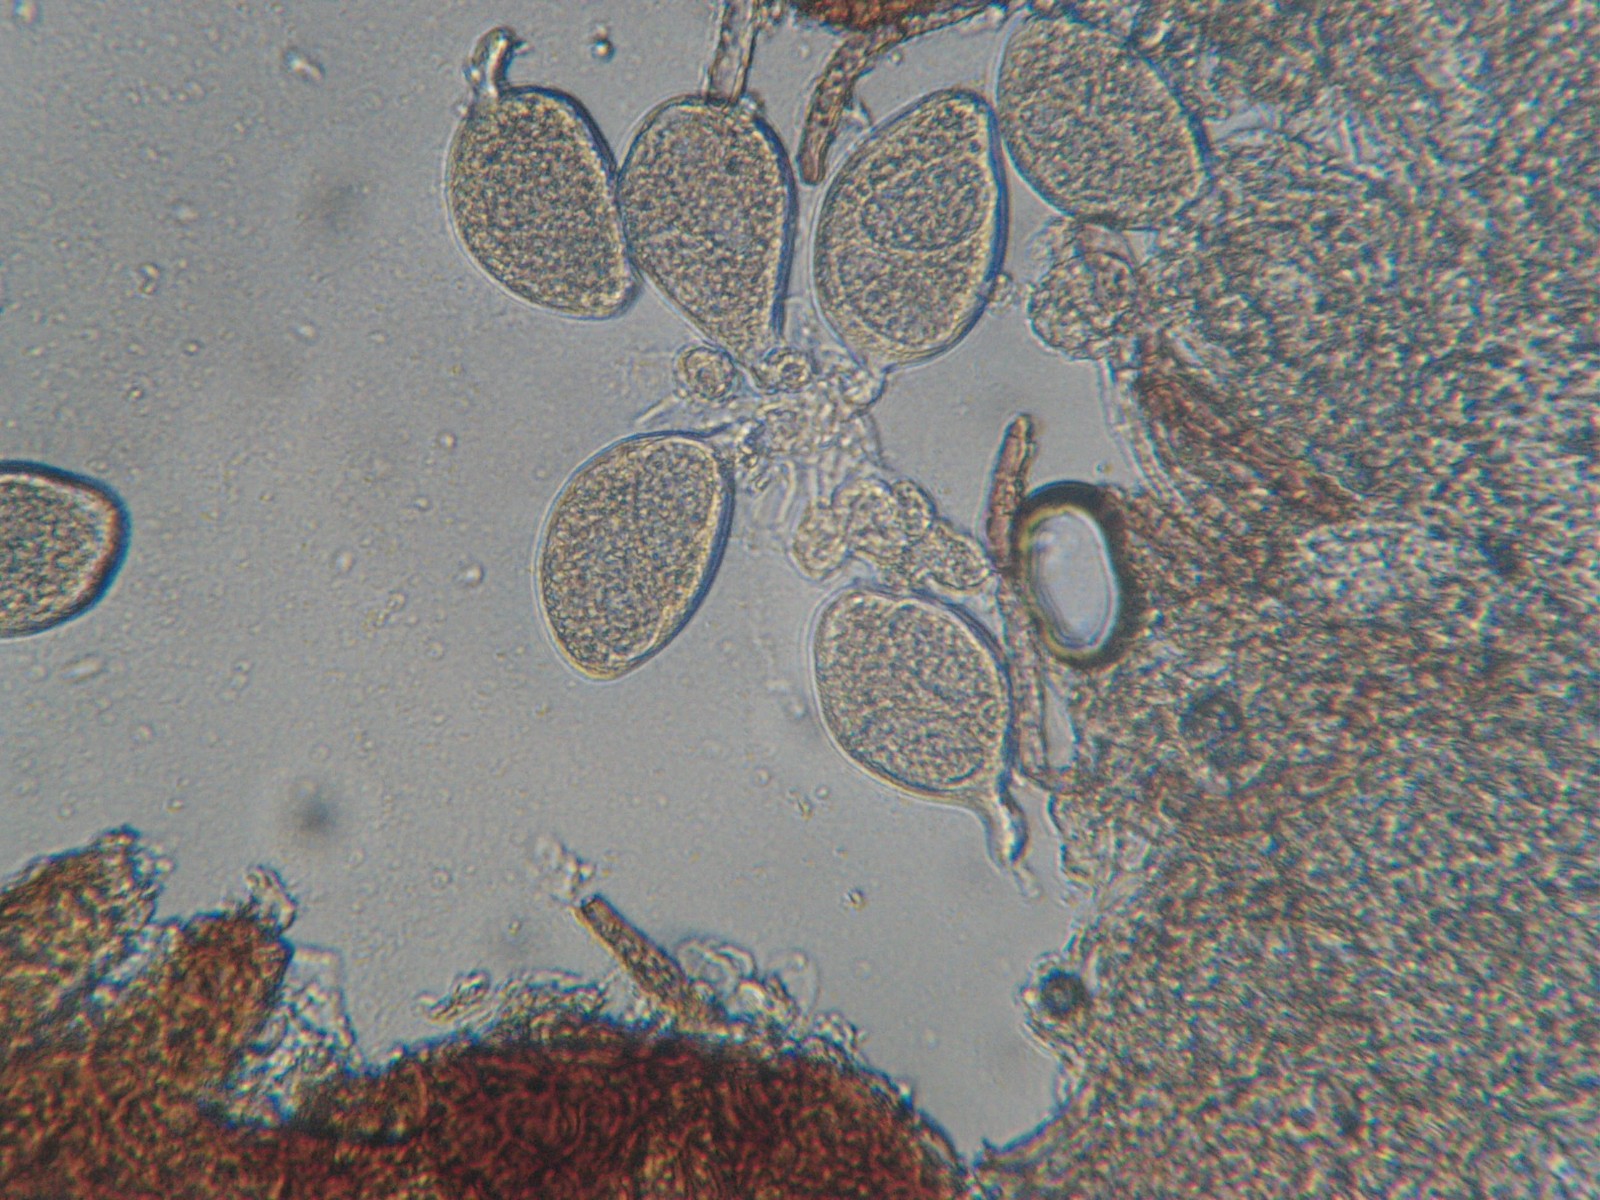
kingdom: Fungi
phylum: Ascomycota
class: Leotiomycetes
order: Helotiales
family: Erysiphaceae
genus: Golovinomyces
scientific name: Golovinomyces fischeri
